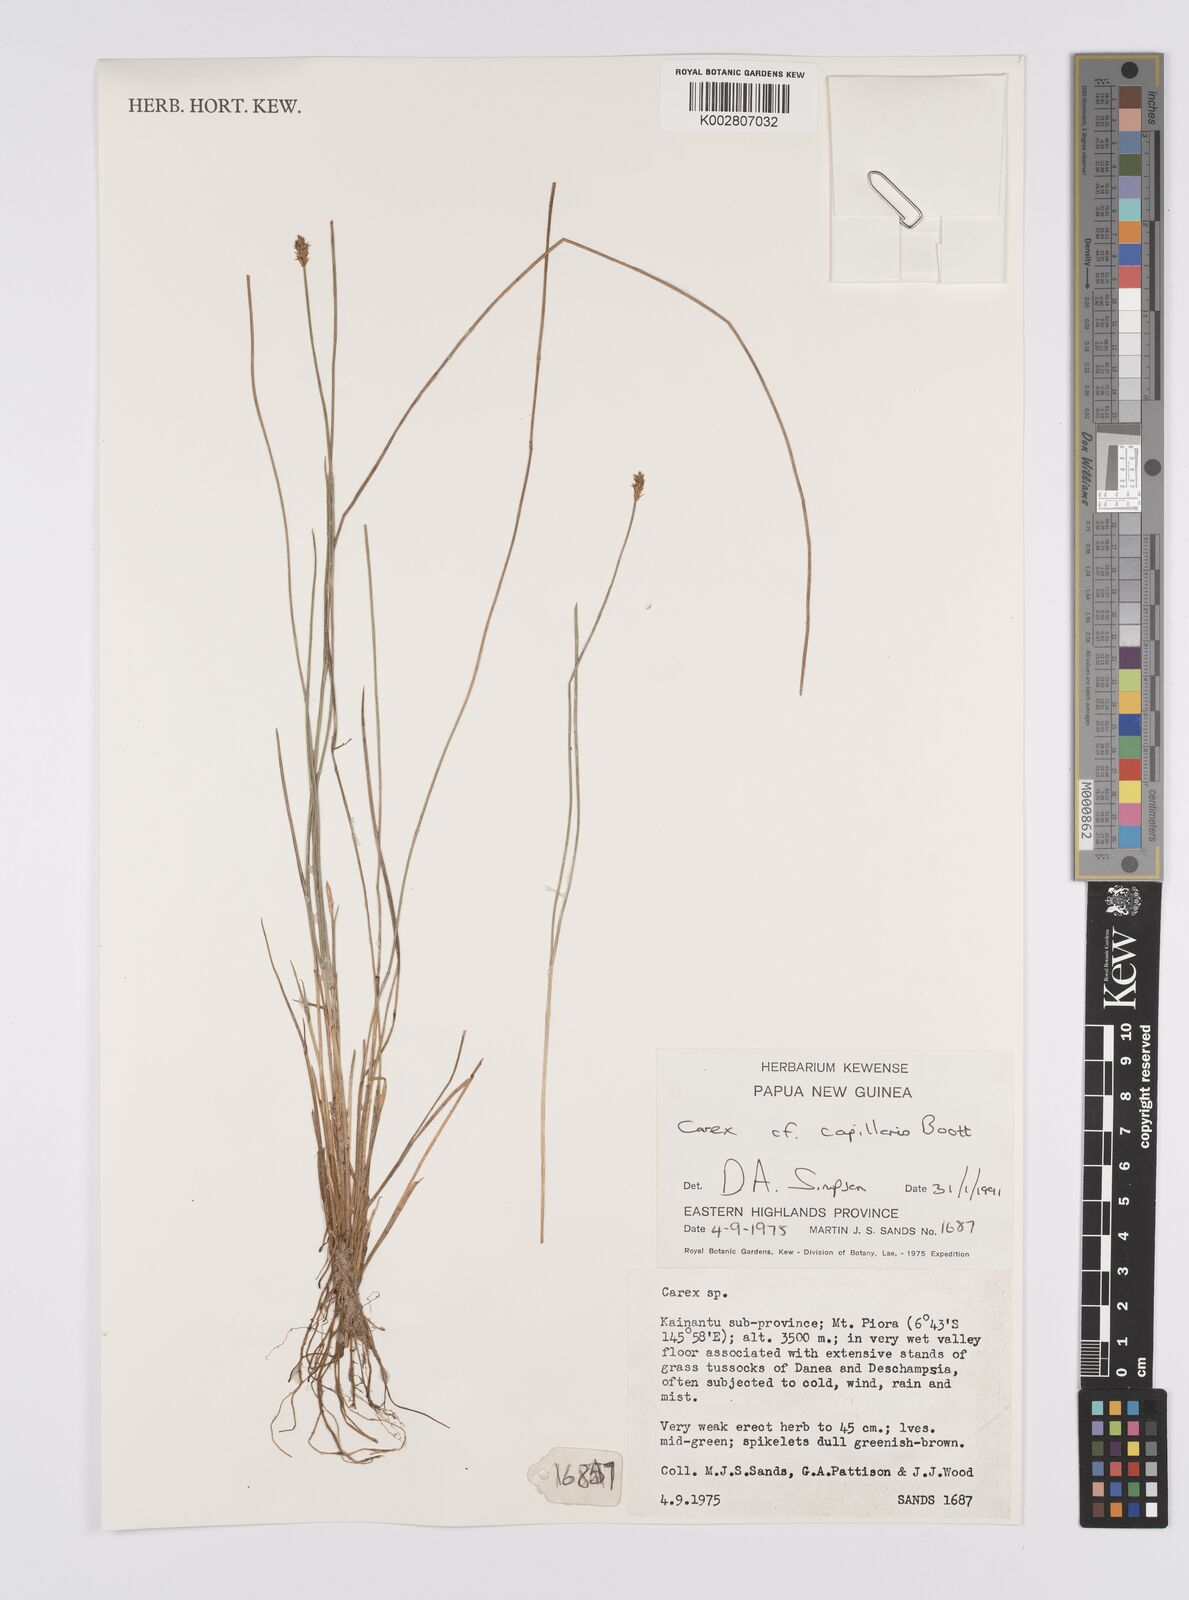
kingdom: Plantae
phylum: Tracheophyta
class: Liliopsida
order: Poales
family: Cyperaceae
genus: Carex
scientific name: Carex capillacea
